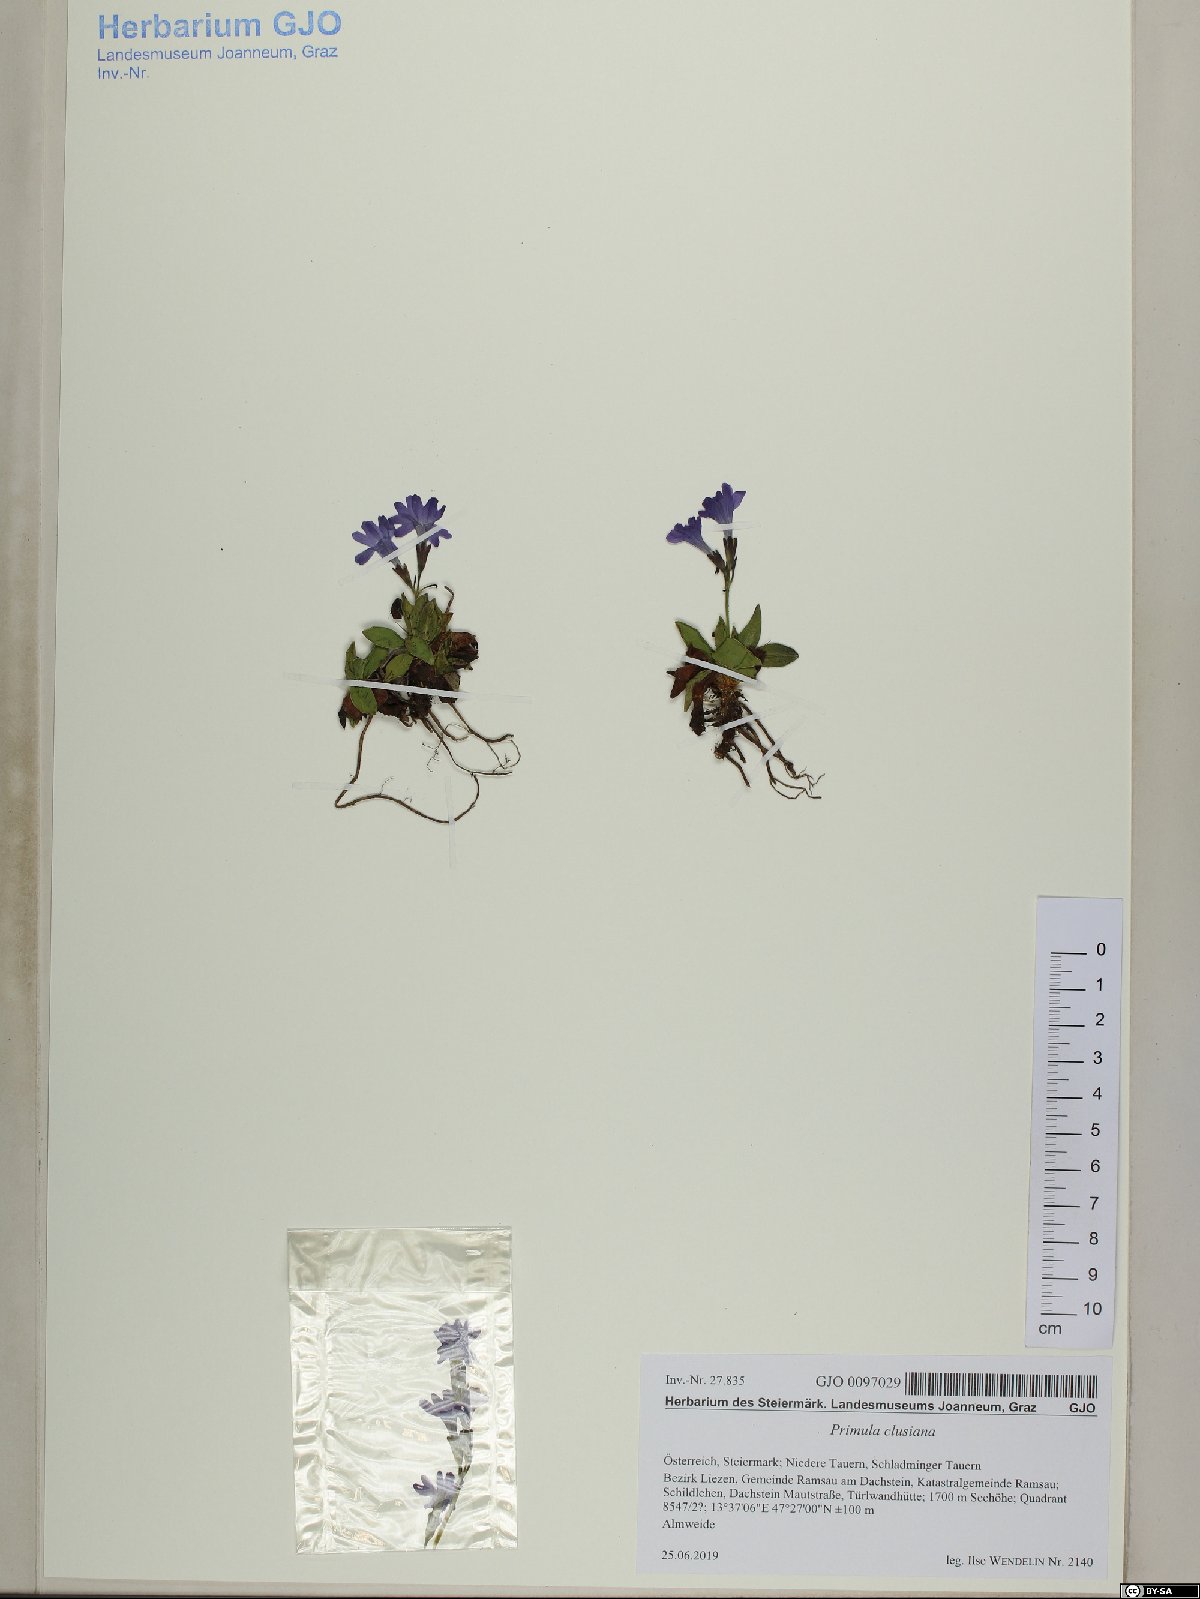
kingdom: Plantae
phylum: Tracheophyta
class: Magnoliopsida
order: Ericales
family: Primulaceae
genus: Primula
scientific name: Primula clusiana
